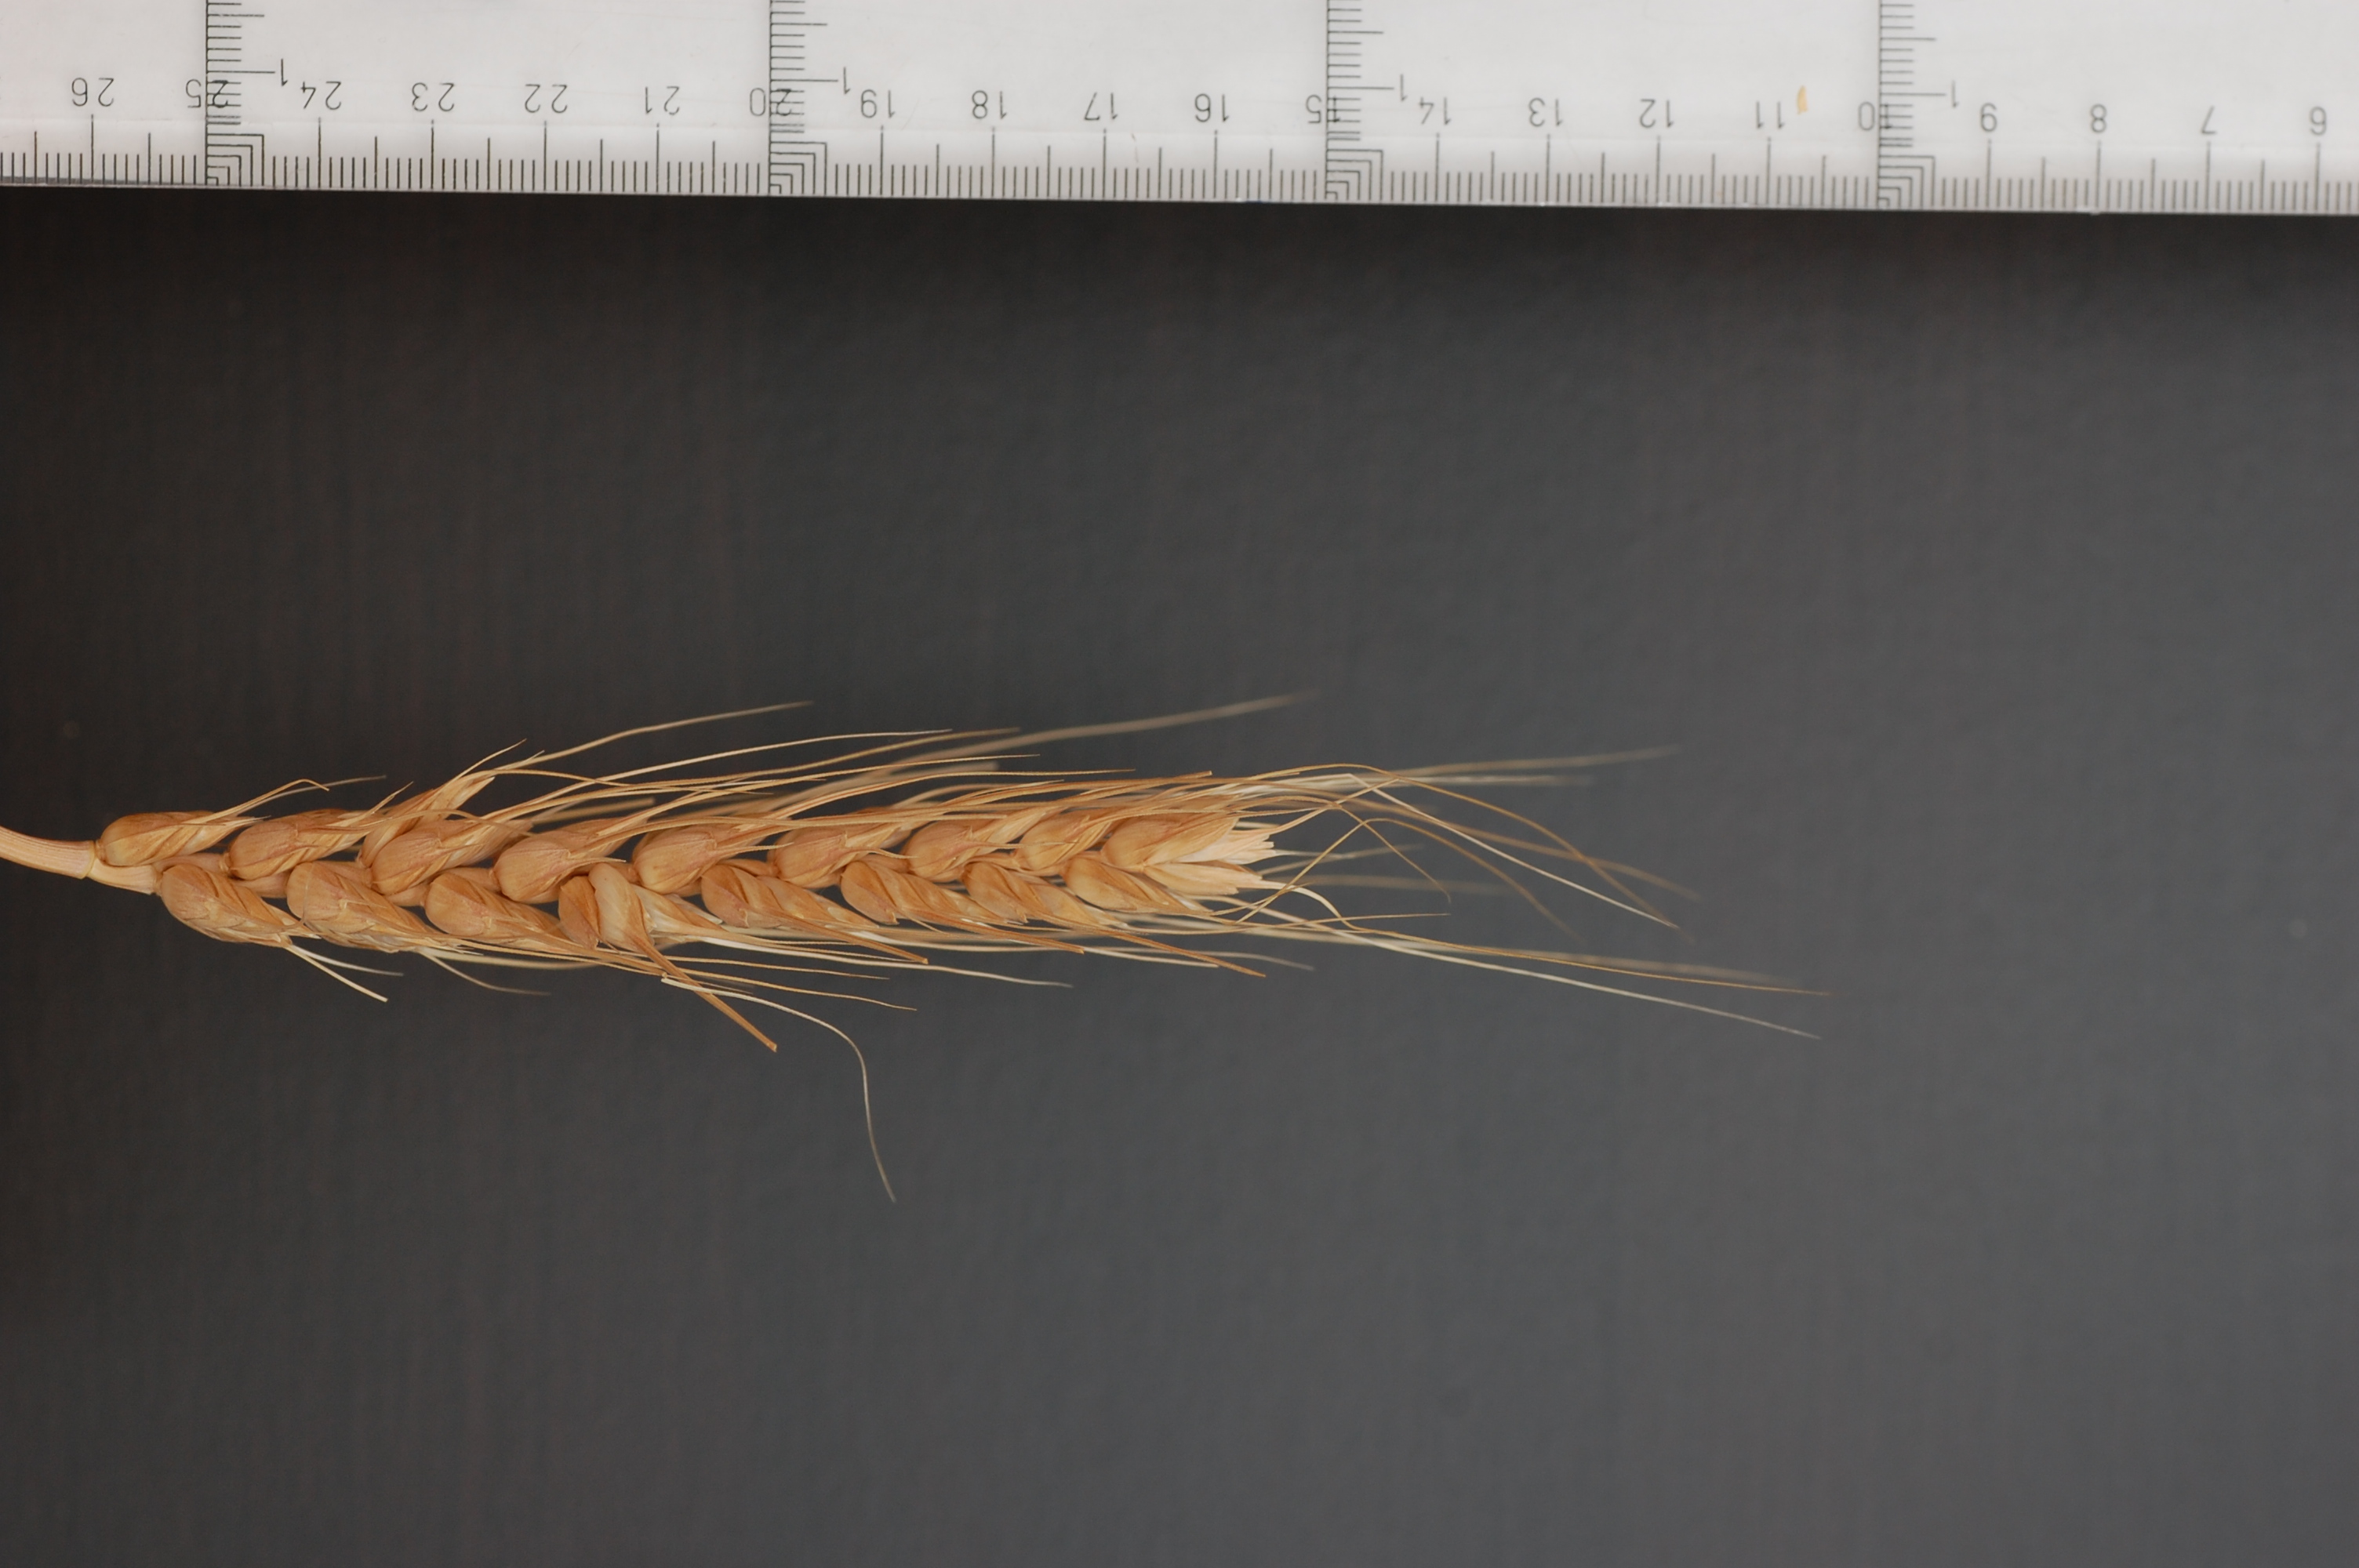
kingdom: Plantae
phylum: Tracheophyta
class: Liliopsida
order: Poales
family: Poaceae
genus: Triticum
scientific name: Triticum aestivum
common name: Common wheat
